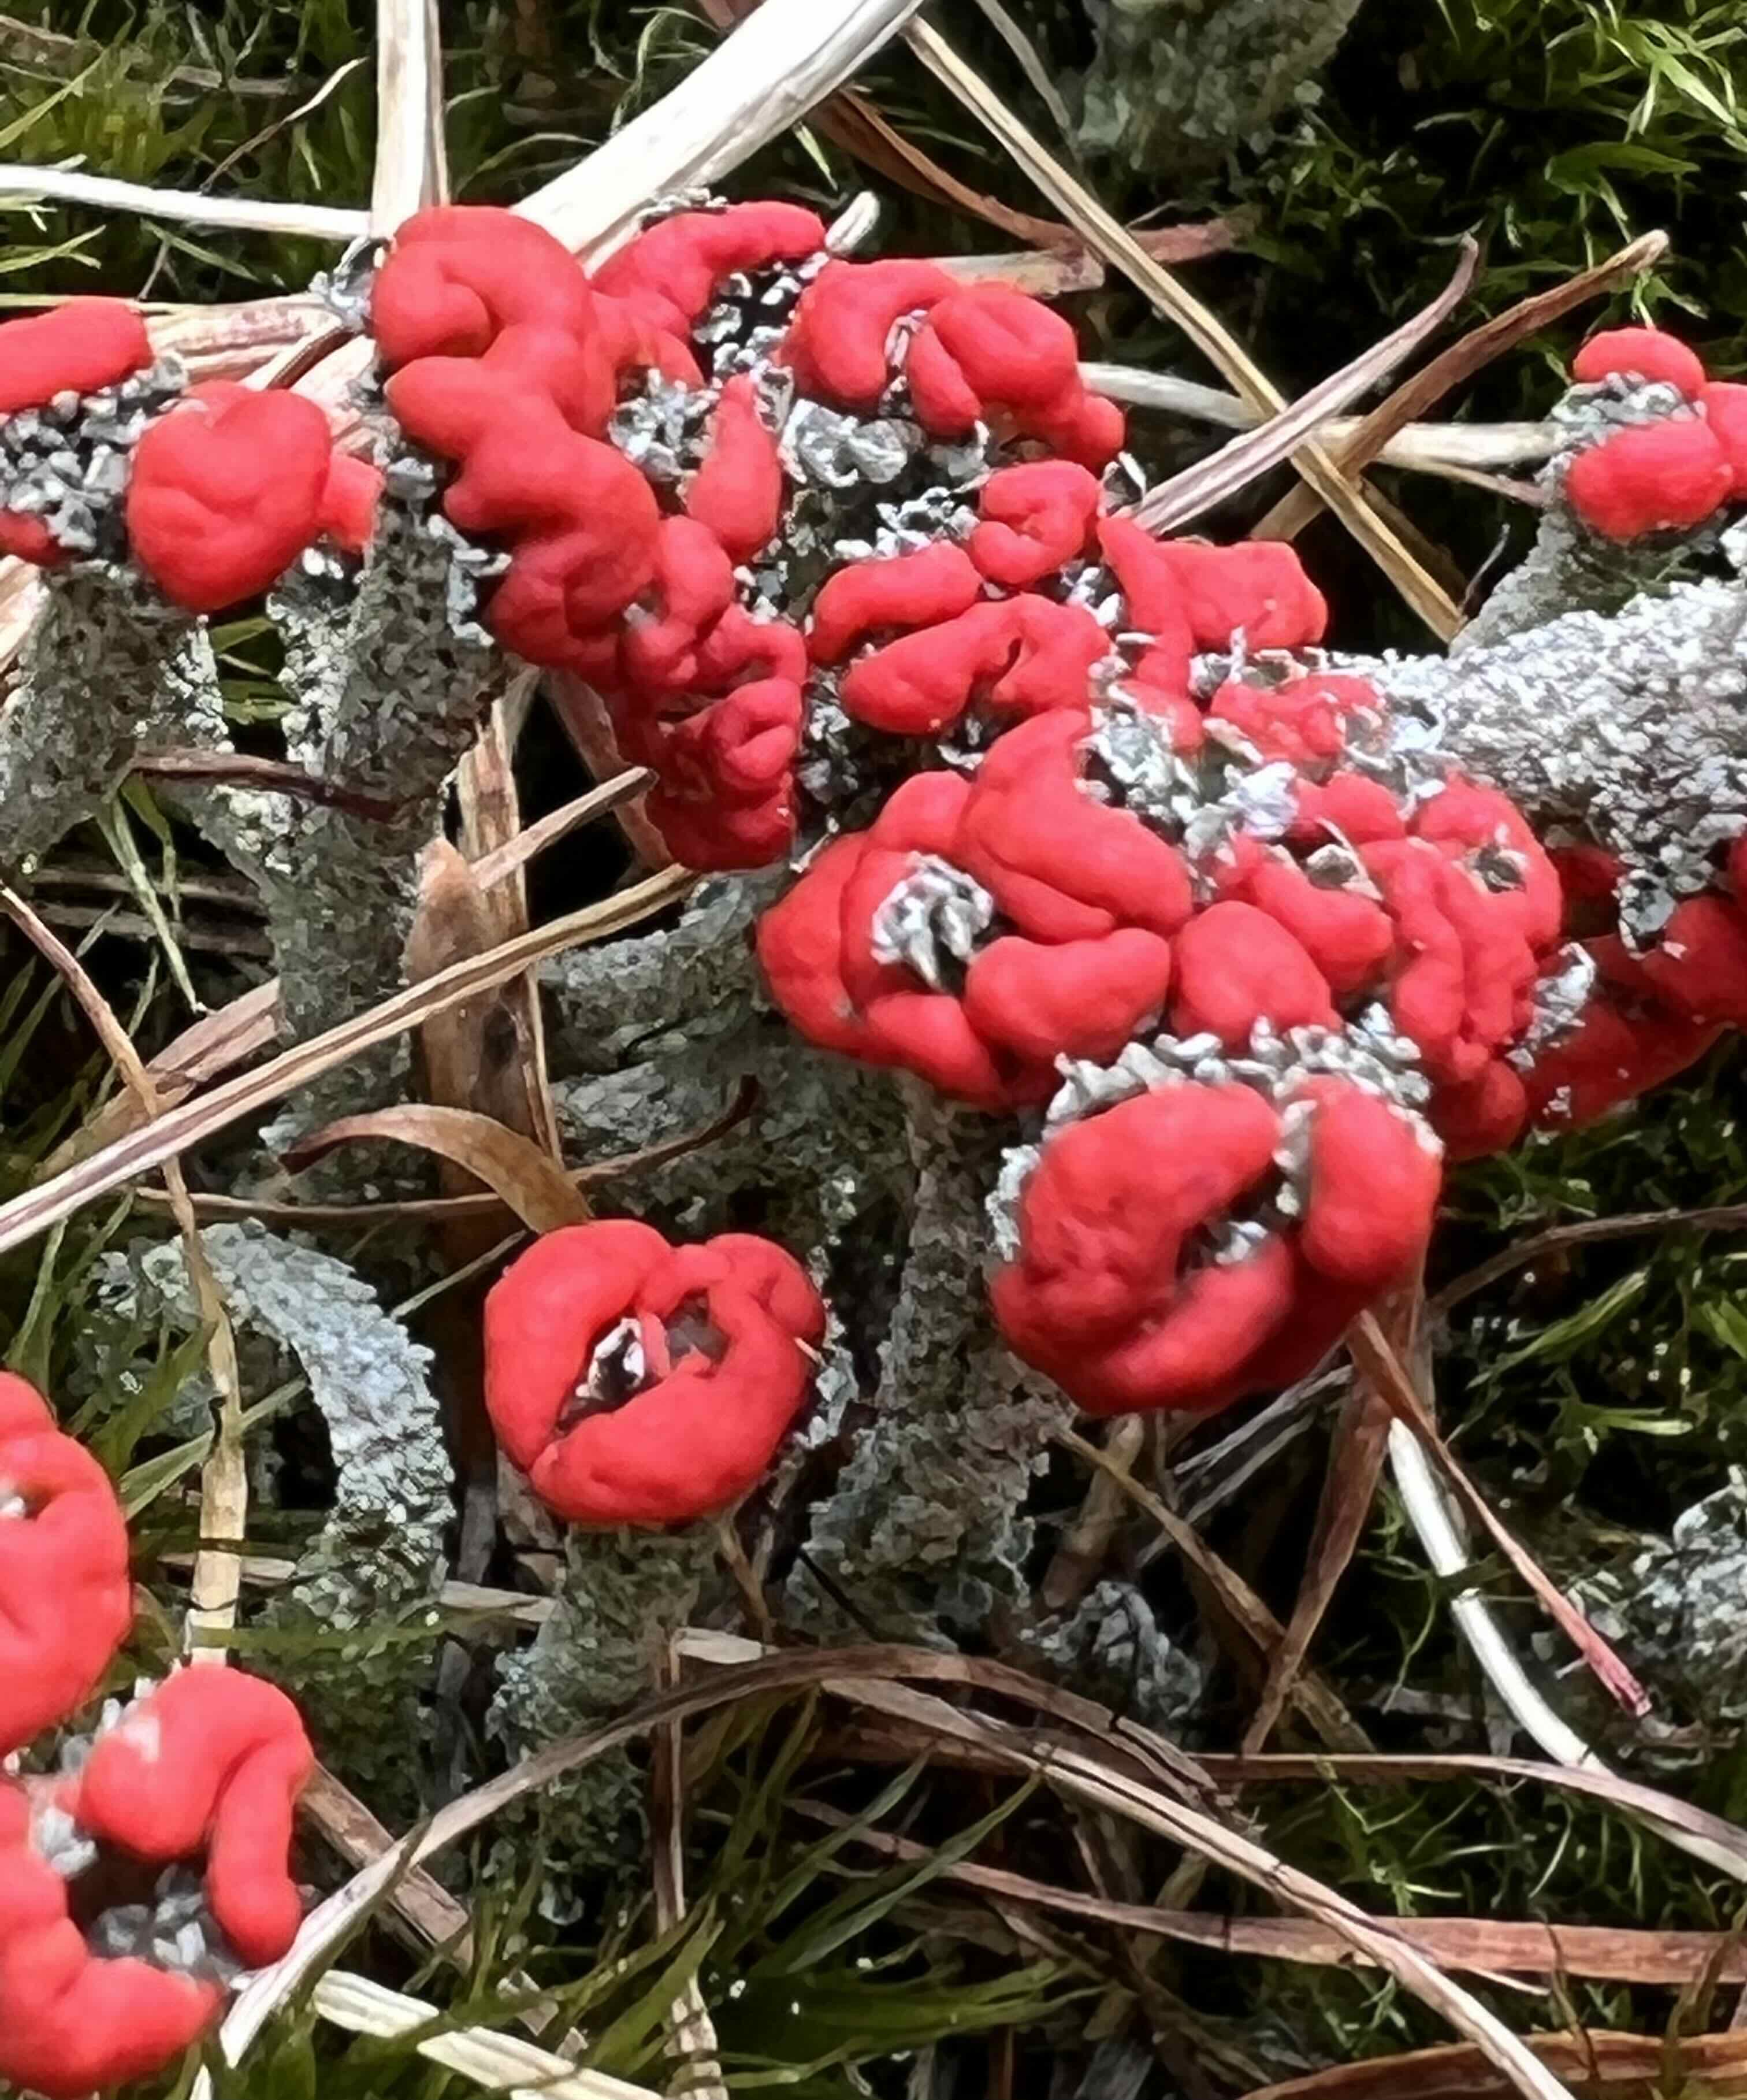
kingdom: Fungi
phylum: Ascomycota
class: Lecanoromycetes
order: Lecanorales
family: Cladoniaceae
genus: Cladonia
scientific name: Cladonia floerkeana
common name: lakrød bægerlav
